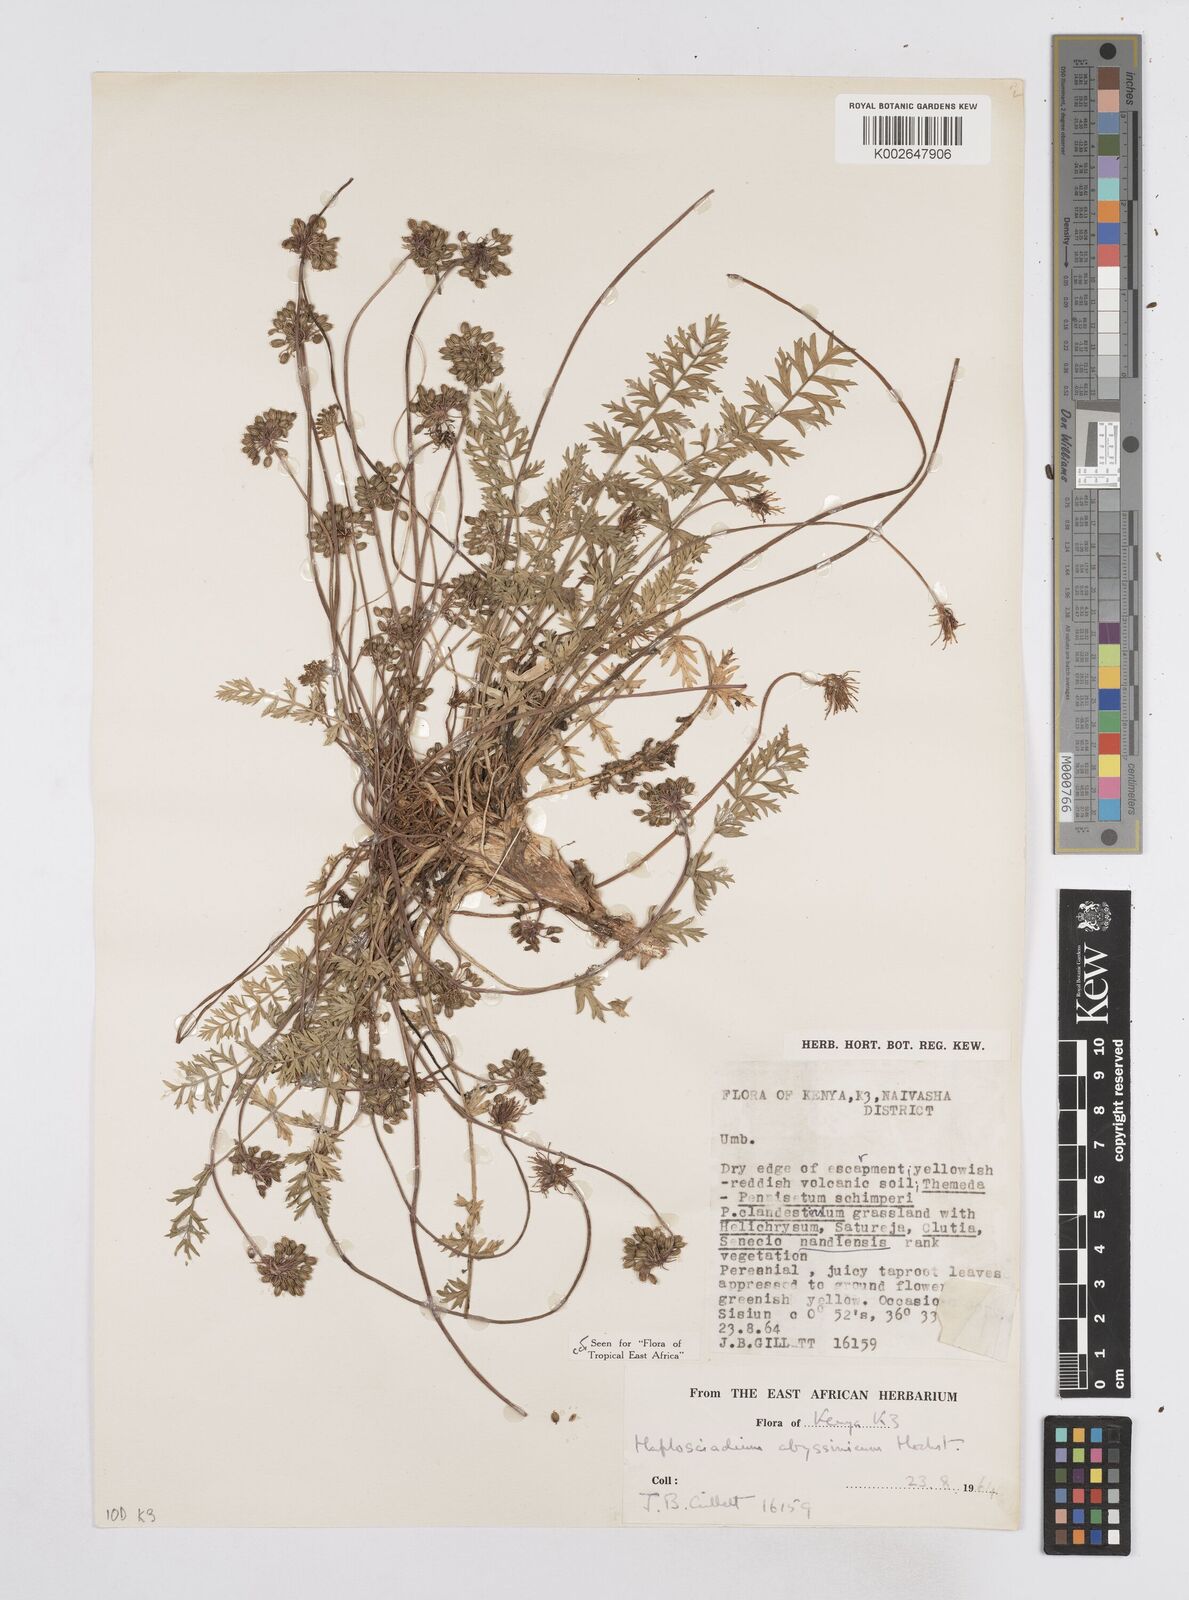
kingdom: Plantae
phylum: Tracheophyta
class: Magnoliopsida
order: Apiales
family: Apiaceae
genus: Haplosciadium
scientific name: Haplosciadium abyssinicum
